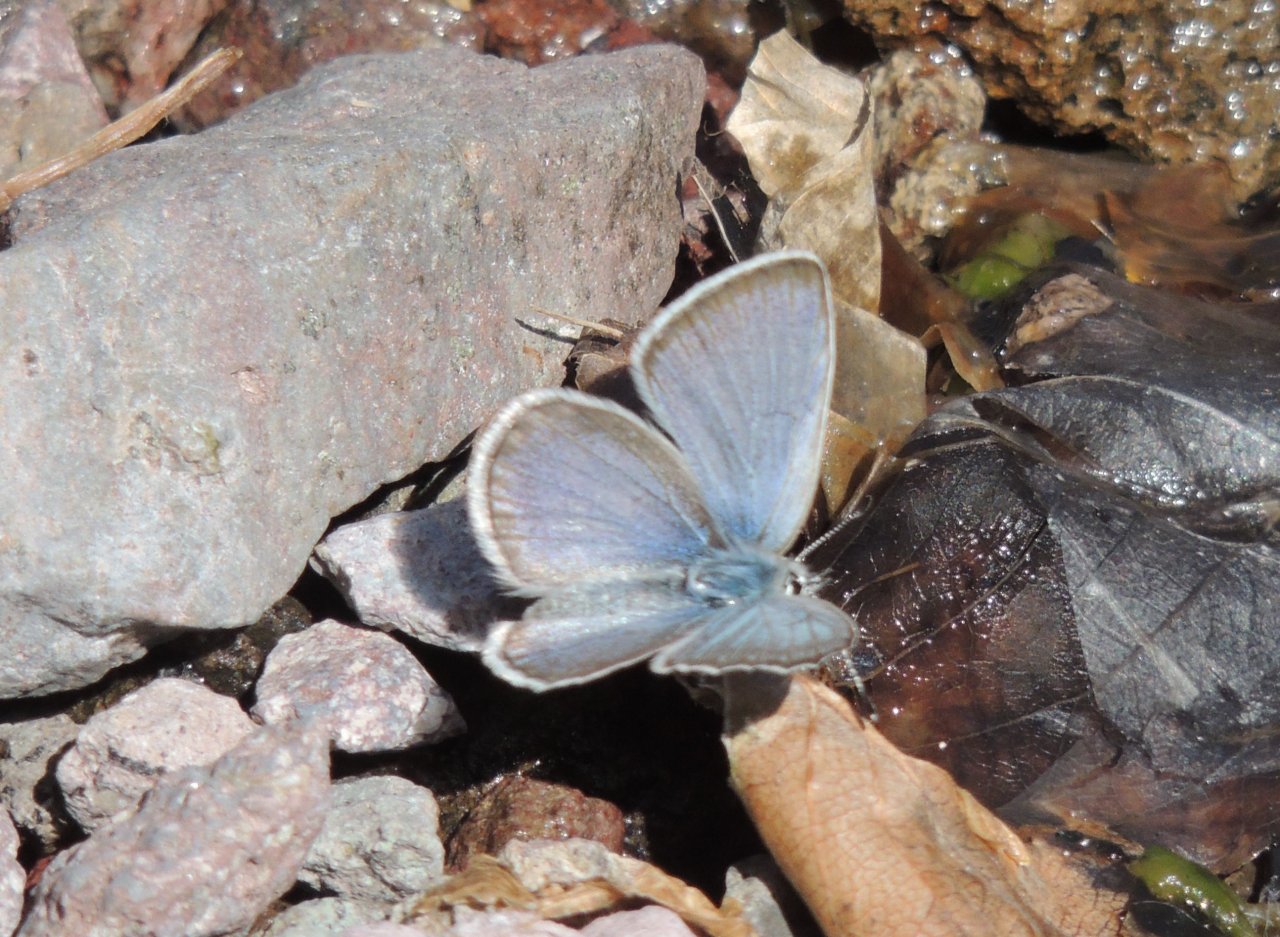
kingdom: Animalia
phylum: Arthropoda
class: Insecta
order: Lepidoptera
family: Lycaenidae
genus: Icaricia
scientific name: Icaricia icarioides
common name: Boisduval's Blue
